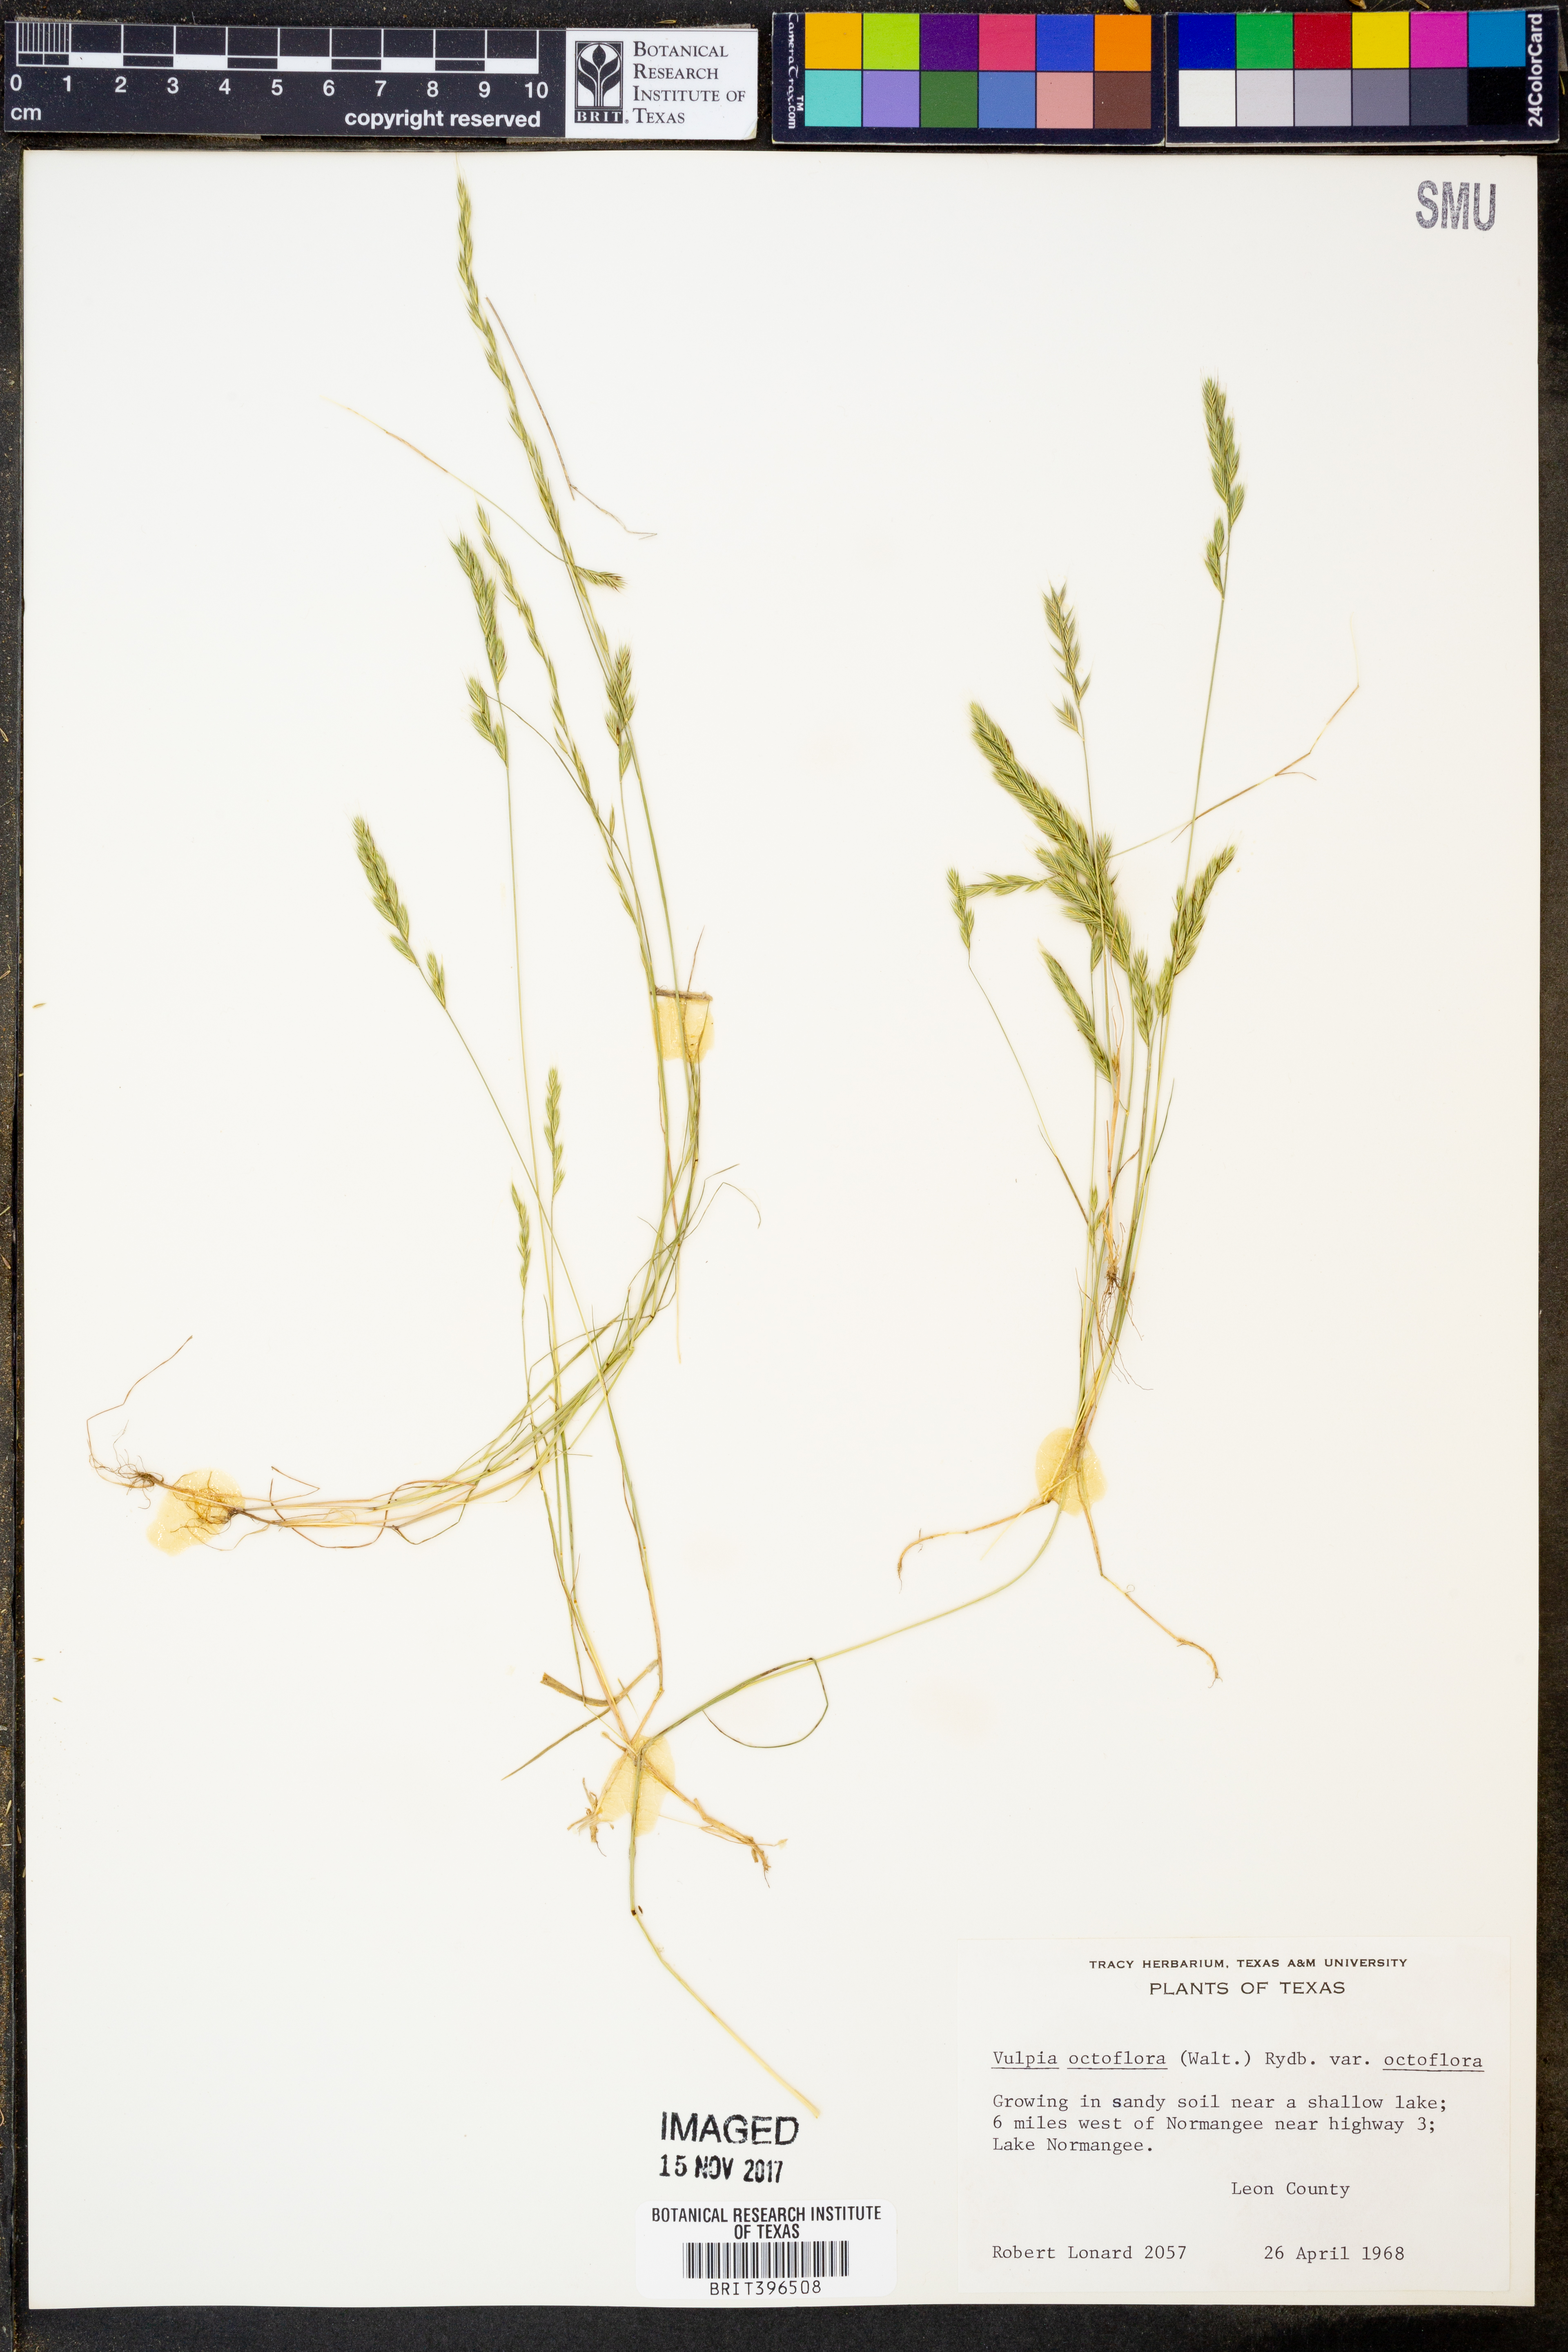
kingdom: Plantae
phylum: Tracheophyta
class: Liliopsida
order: Poales
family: Poaceae
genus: Festuca
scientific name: Festuca octoflora
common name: Sixweeks grass
